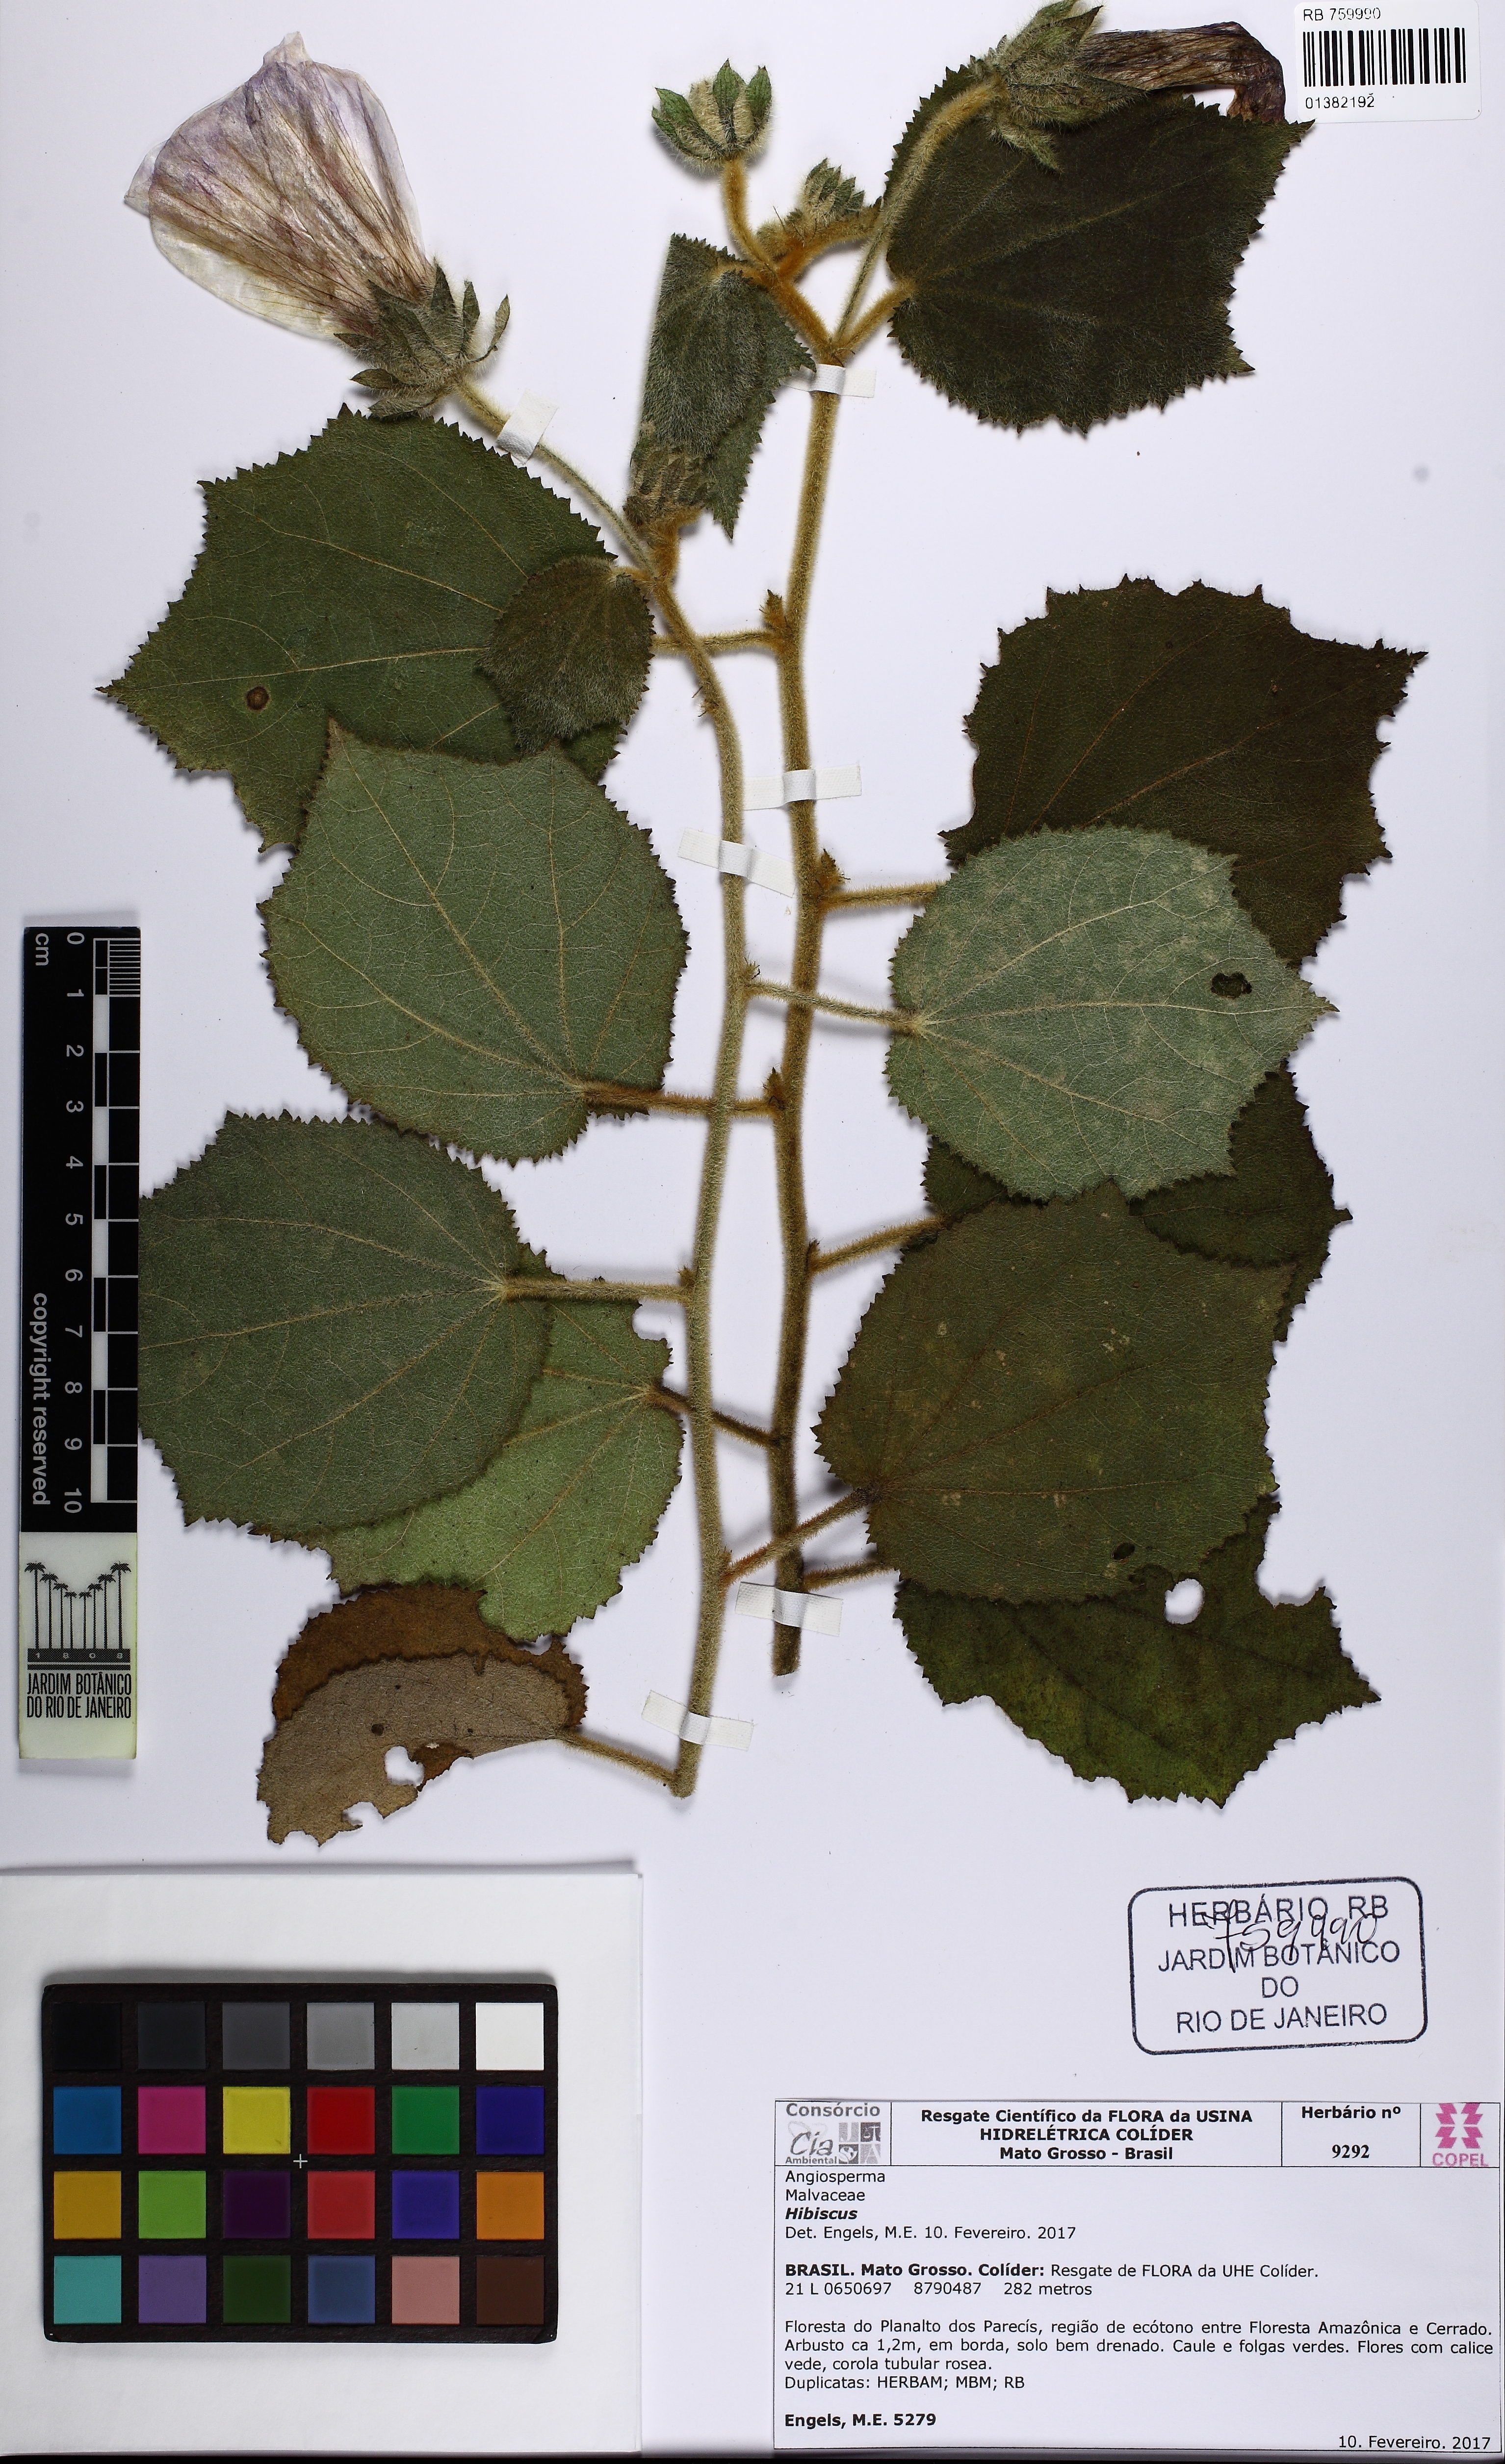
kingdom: Plantae
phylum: Tracheophyta
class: Magnoliopsida
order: Malvales
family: Malvaceae
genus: Hibiscus
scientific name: Hibiscus
